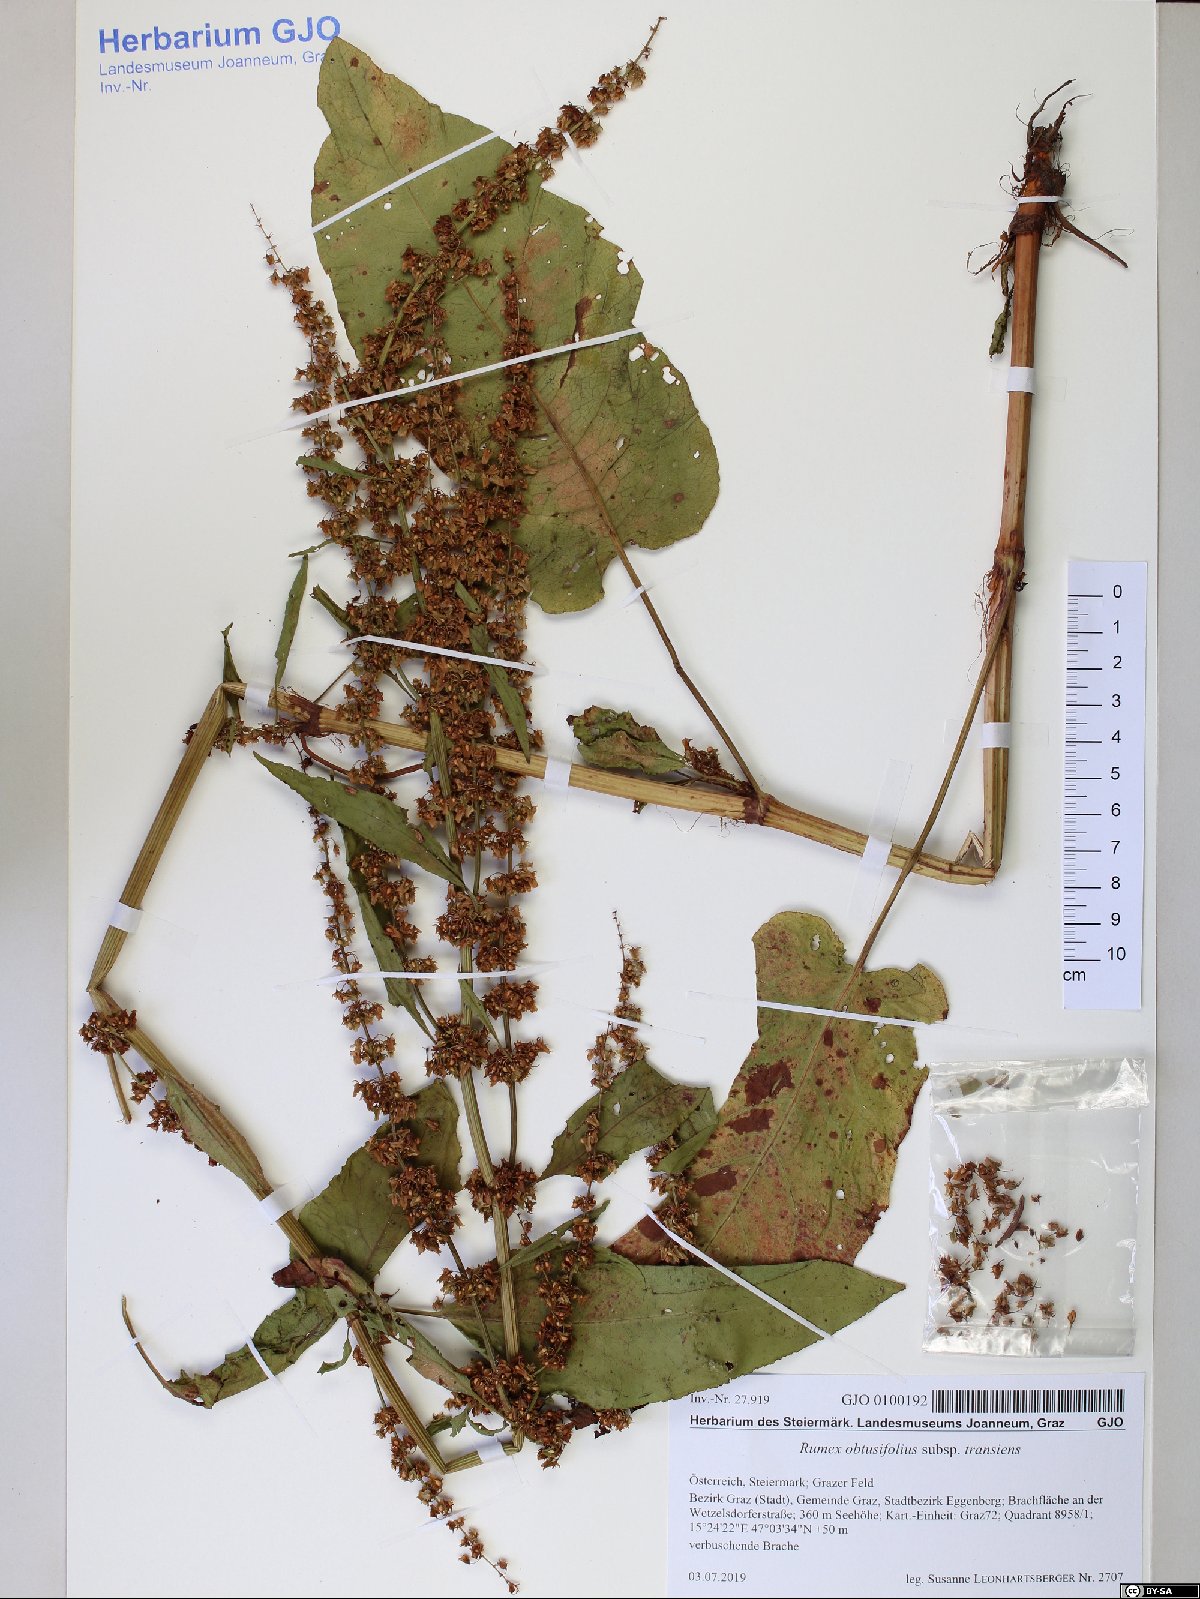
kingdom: Plantae
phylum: Tracheophyta
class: Magnoliopsida
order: Caryophyllales
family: Polygonaceae
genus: Rumex
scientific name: Rumex obtusifolius
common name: Bitter dock
